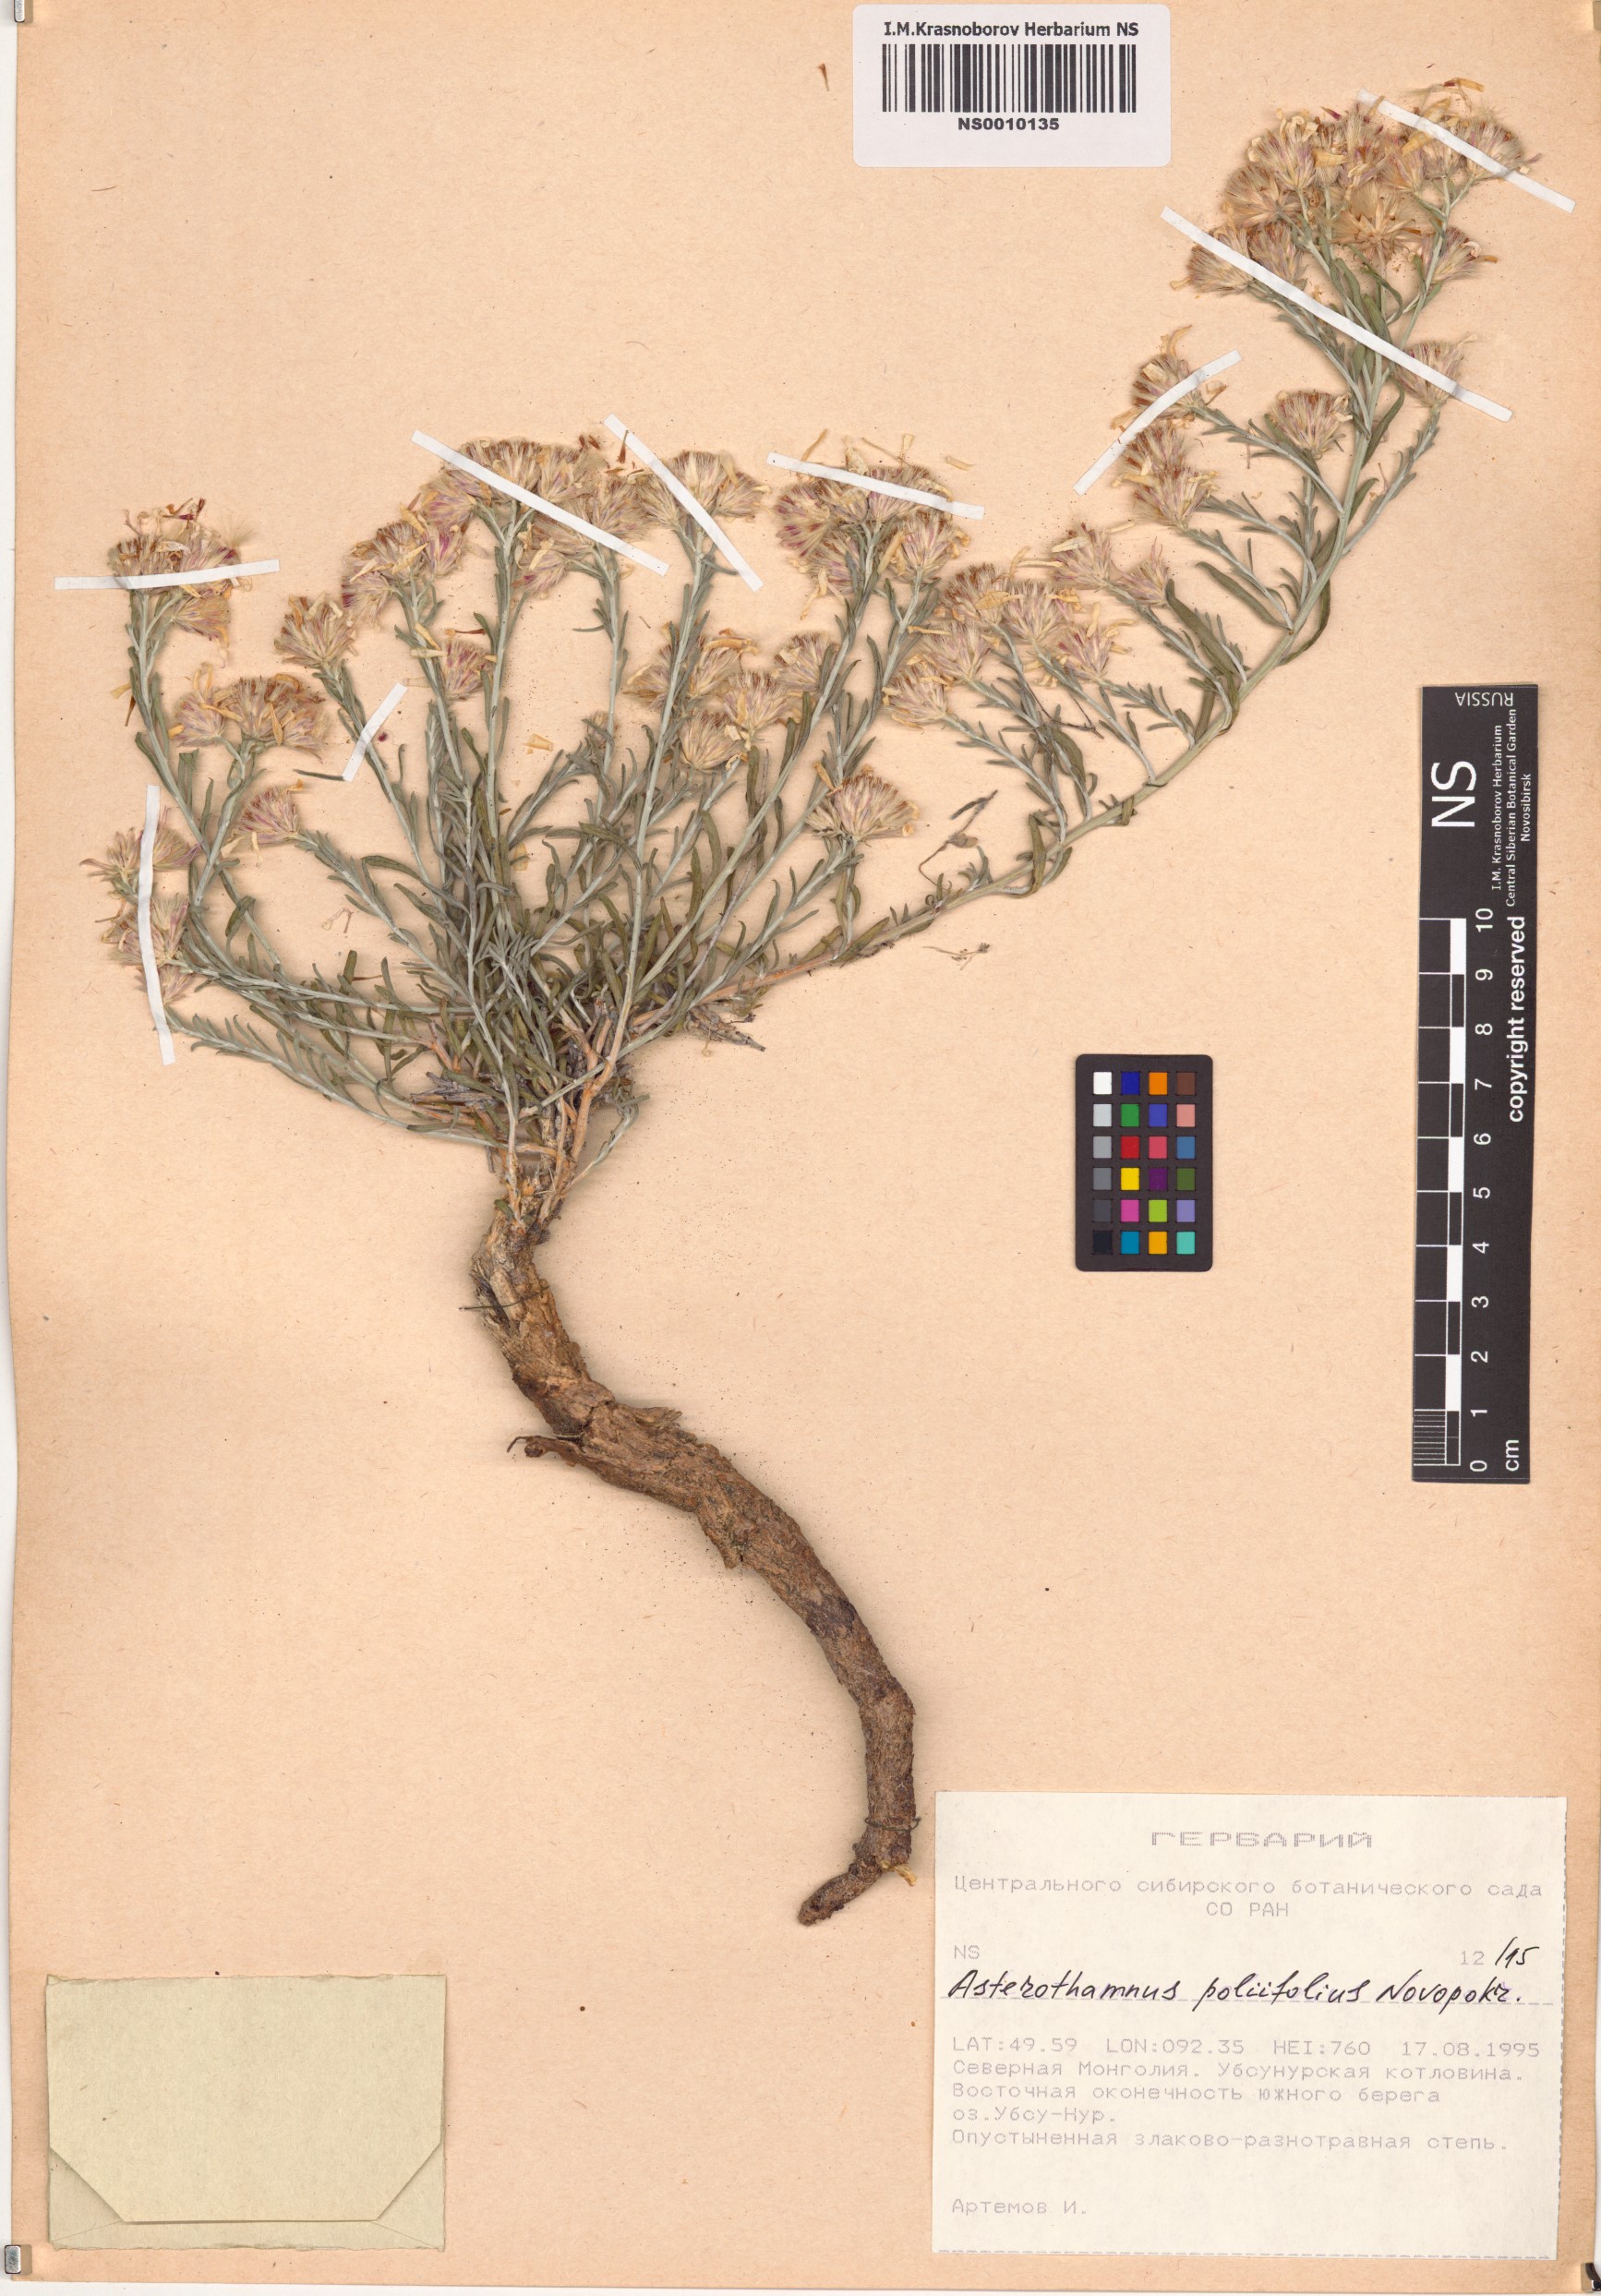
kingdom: Plantae
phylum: Tracheophyta
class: Magnoliopsida
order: Asterales
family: Asteraceae
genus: Asterothamnus
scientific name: Asterothamnus poliifolius
